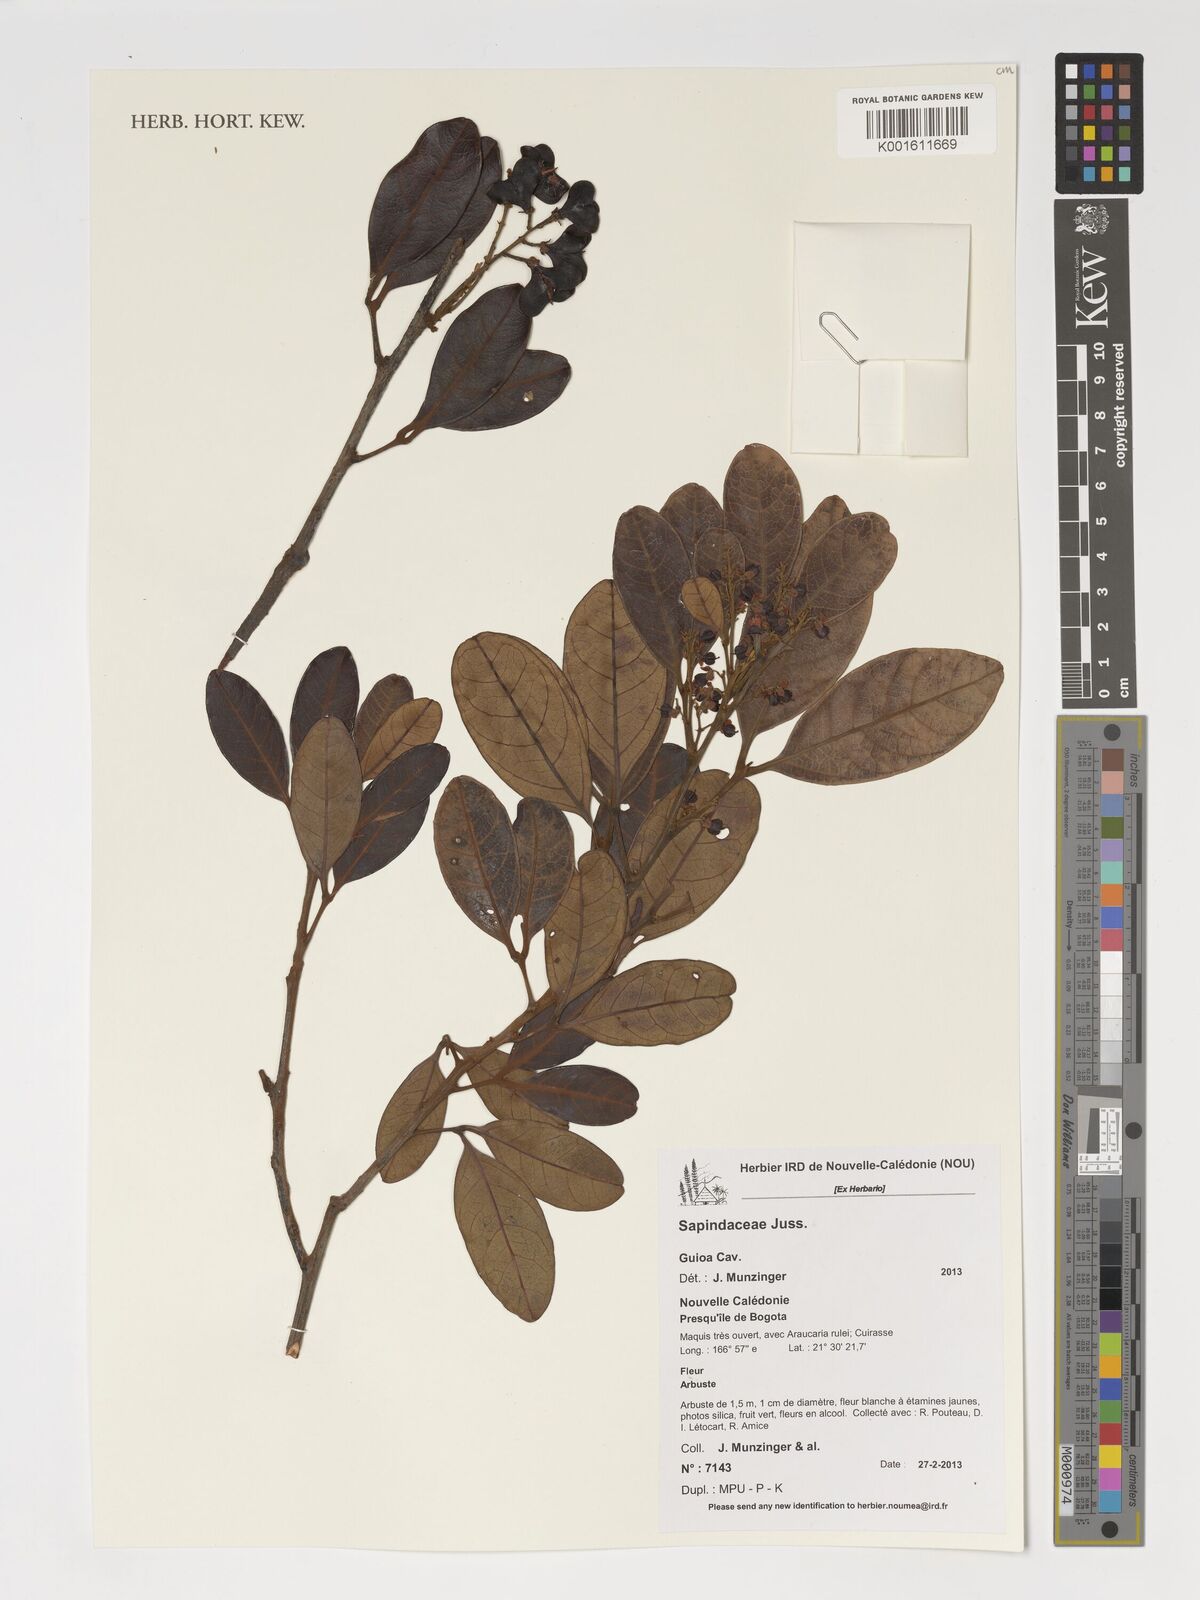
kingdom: Plantae
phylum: Tracheophyta
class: Magnoliopsida
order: Sapindales
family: Sapindaceae
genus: Guioa
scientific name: Guioa
